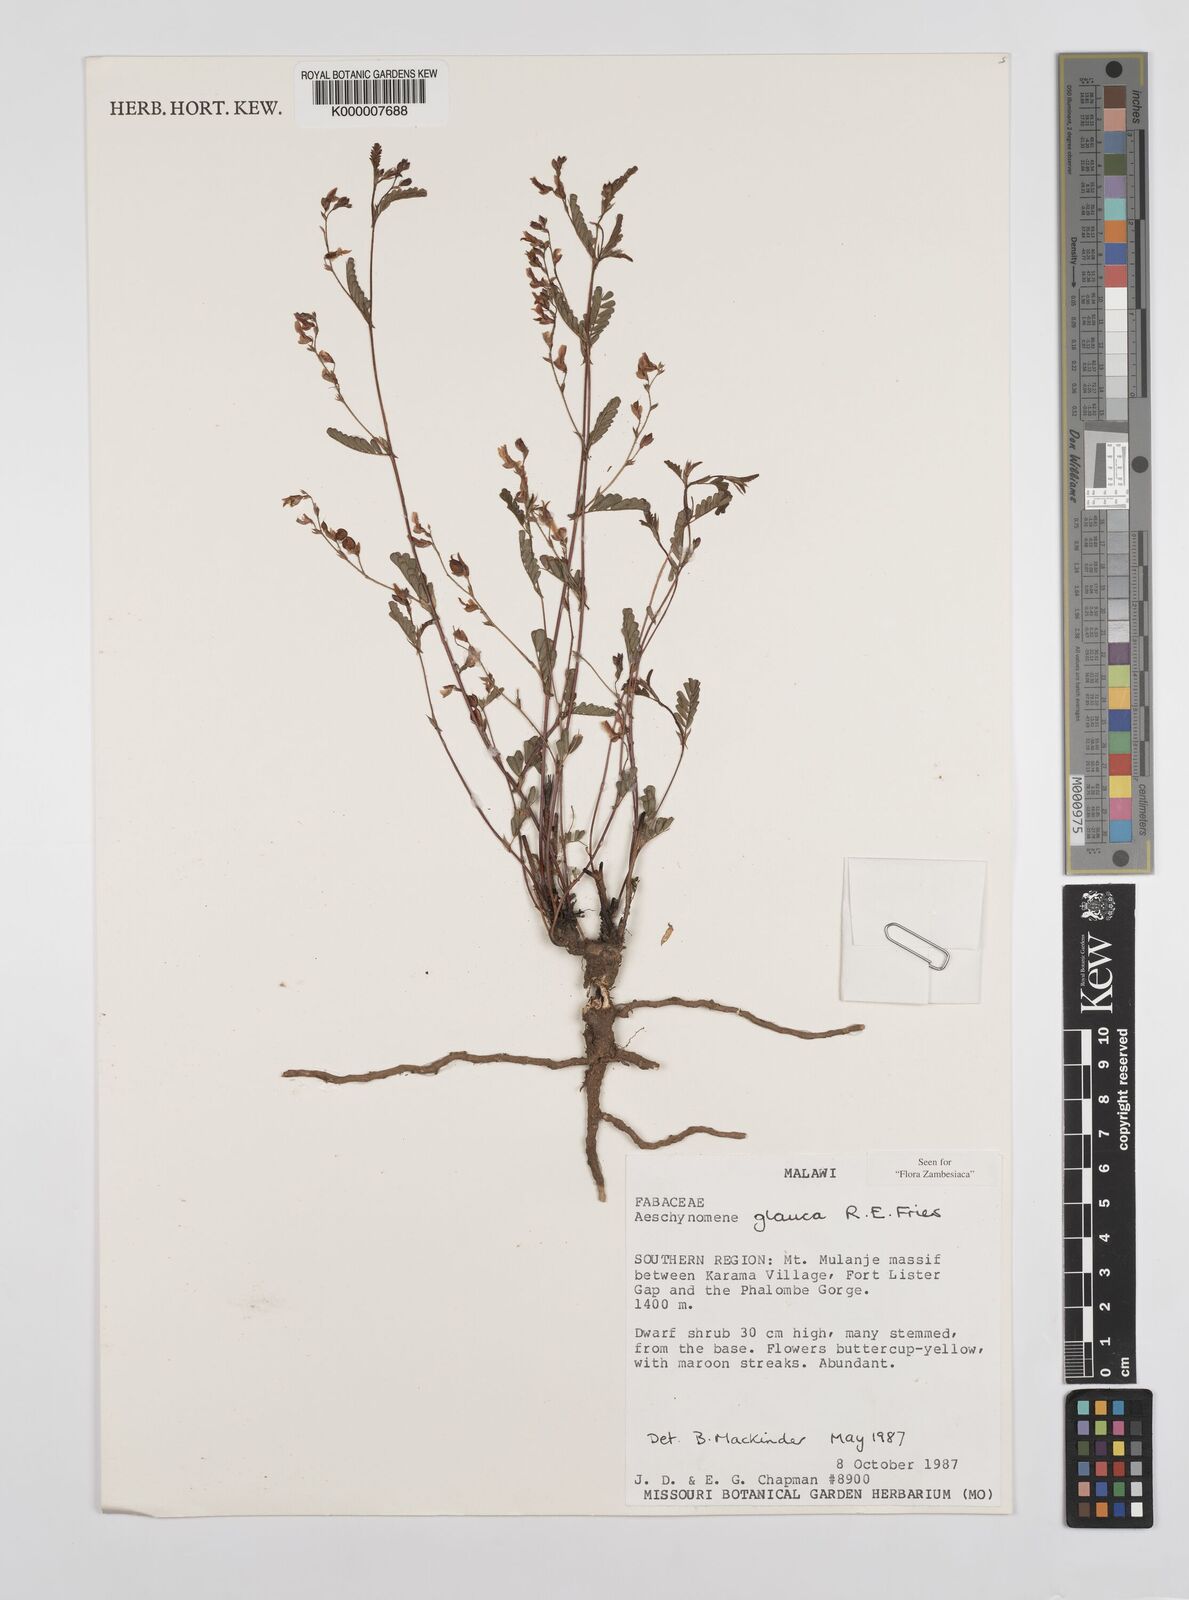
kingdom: Plantae
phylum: Tracheophyta
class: Magnoliopsida
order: Fabales
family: Fabaceae
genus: Aeschynomene
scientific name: Aeschynomene glauca
